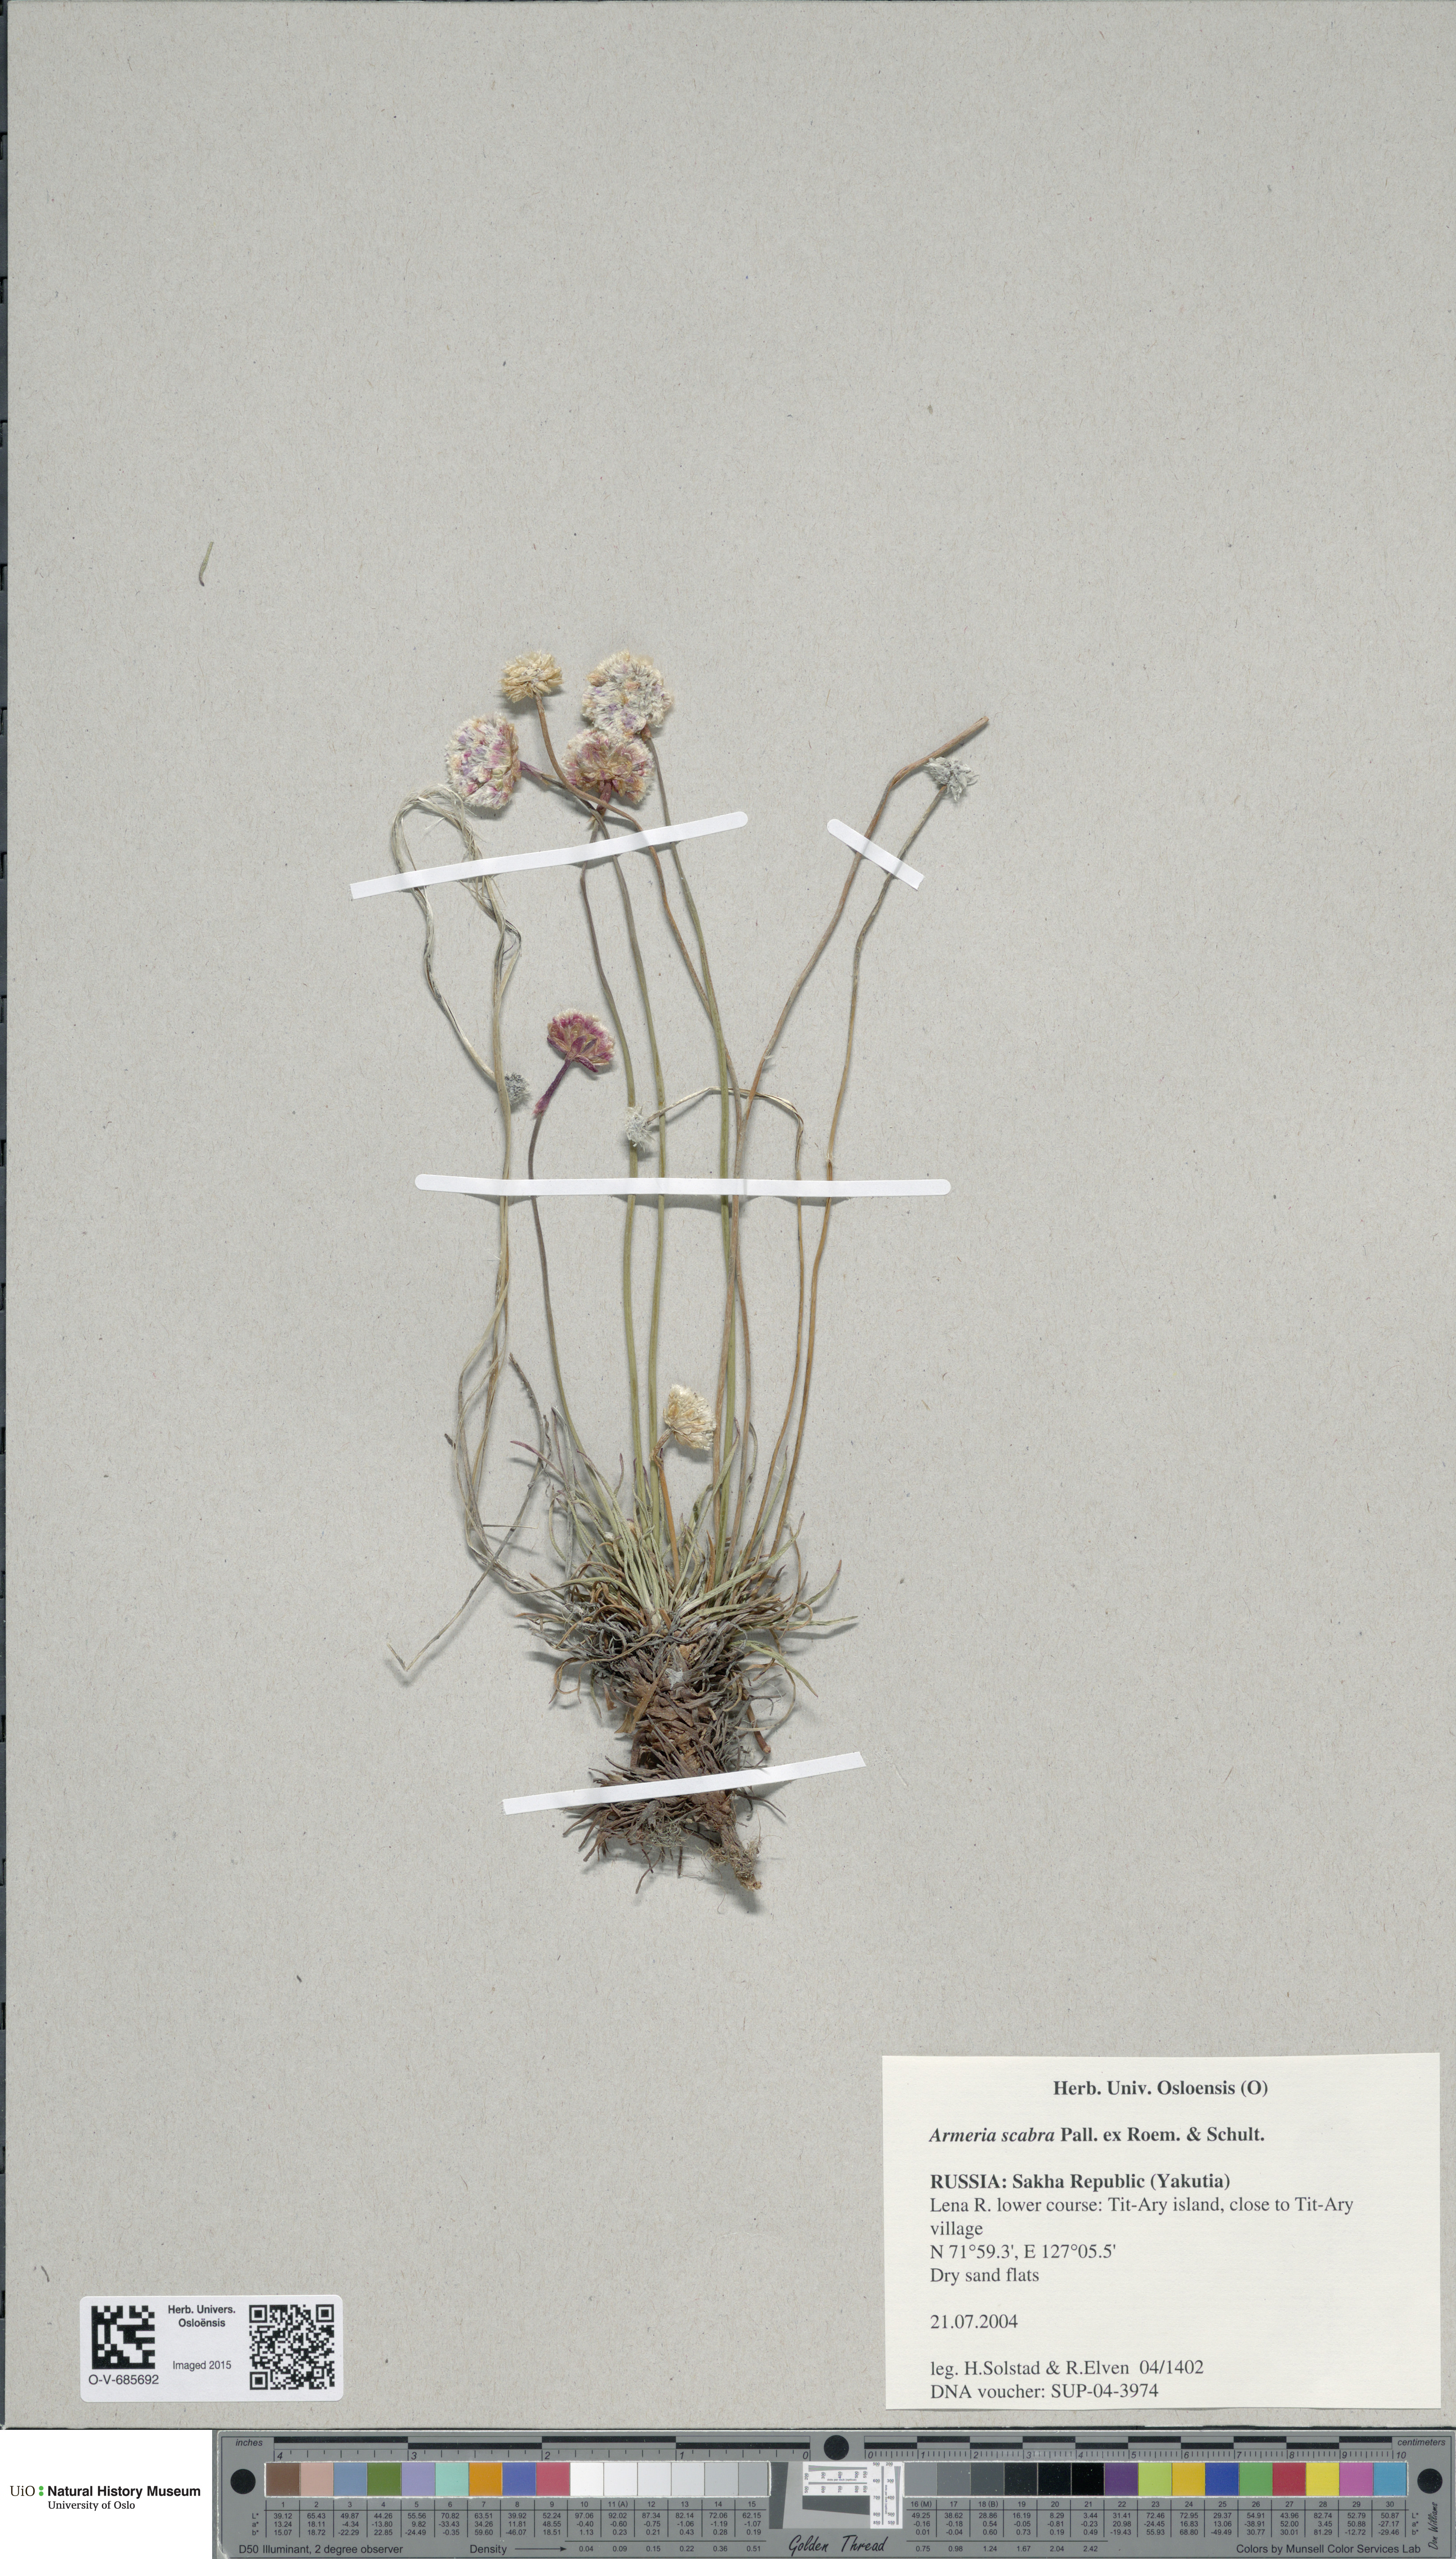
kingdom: Plantae
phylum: Tracheophyta
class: Magnoliopsida
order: Caryophyllales
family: Plumbaginaceae
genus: Armeria
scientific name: Armeria maritima
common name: Thrift
